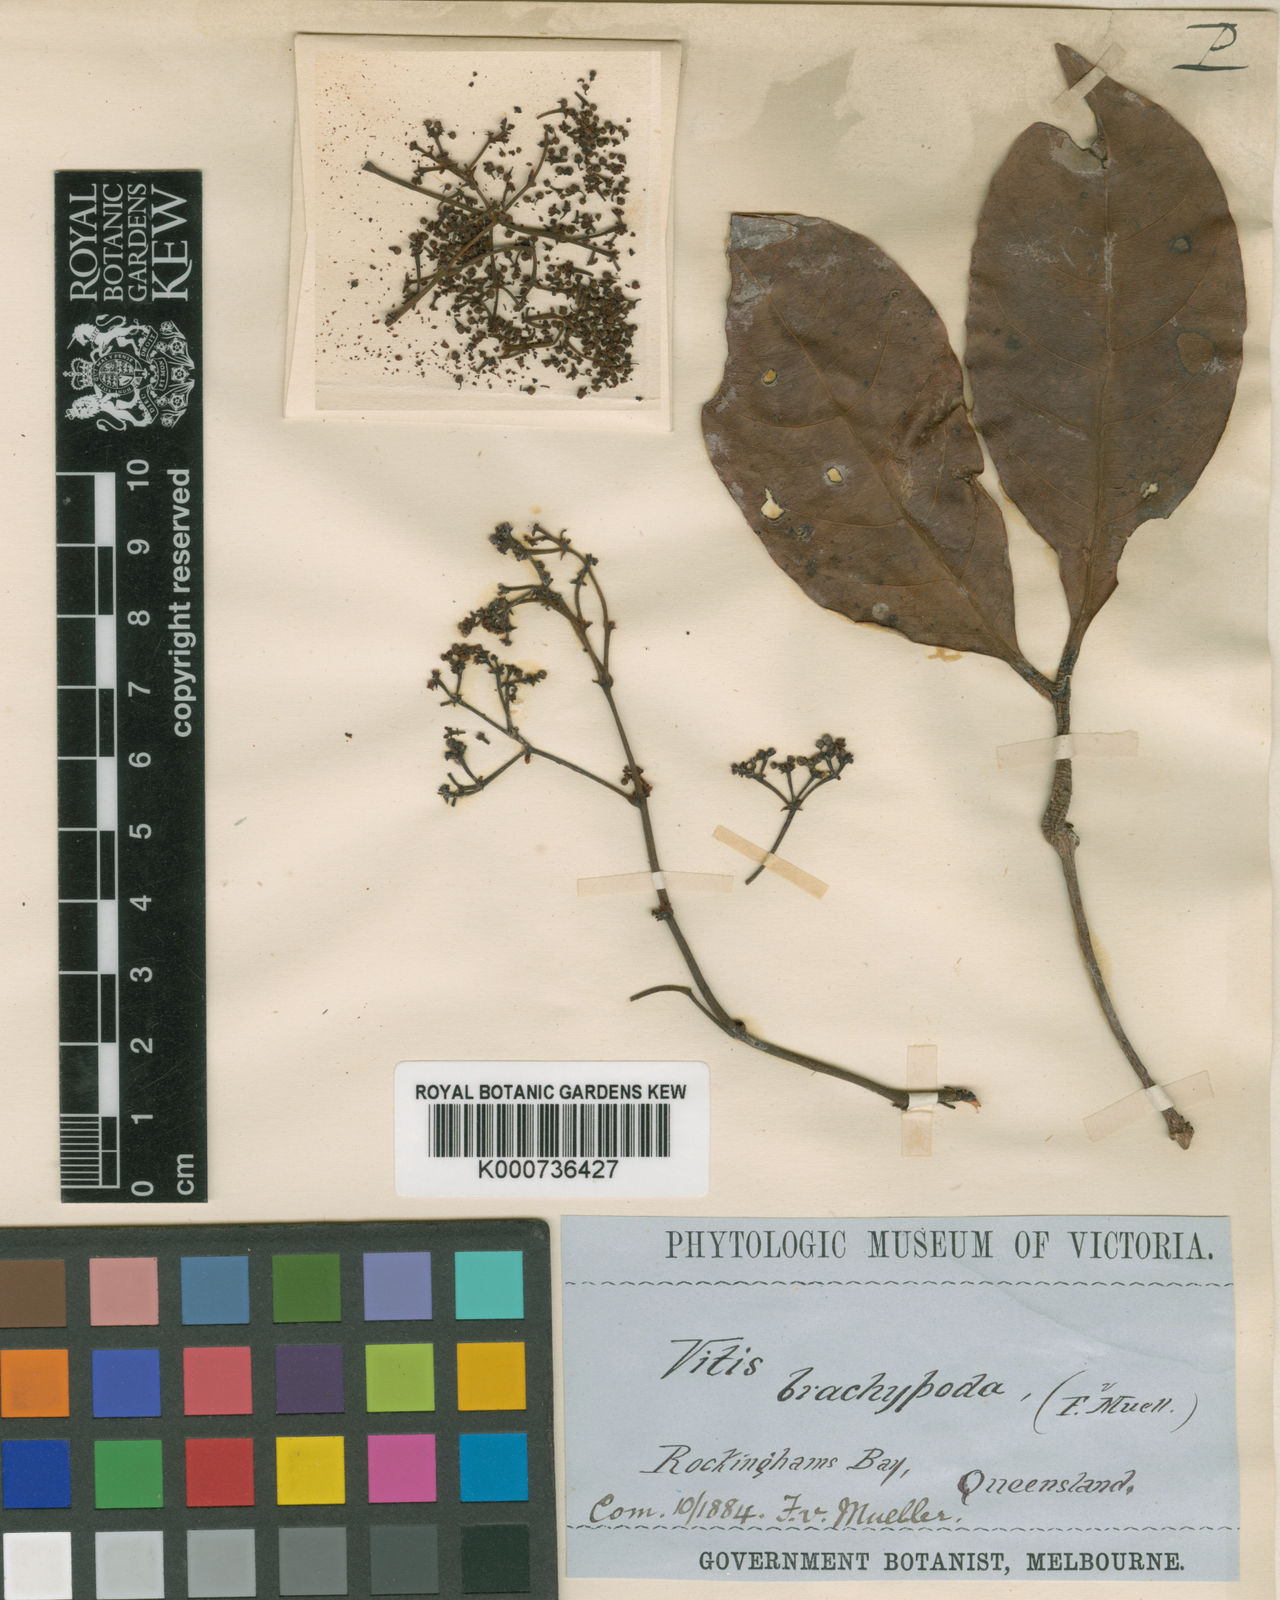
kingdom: Plantae
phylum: Tracheophyta
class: Magnoliopsida
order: Vitales
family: Vitaceae
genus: Nothocissus
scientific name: Nothocissus sterculiifolia
